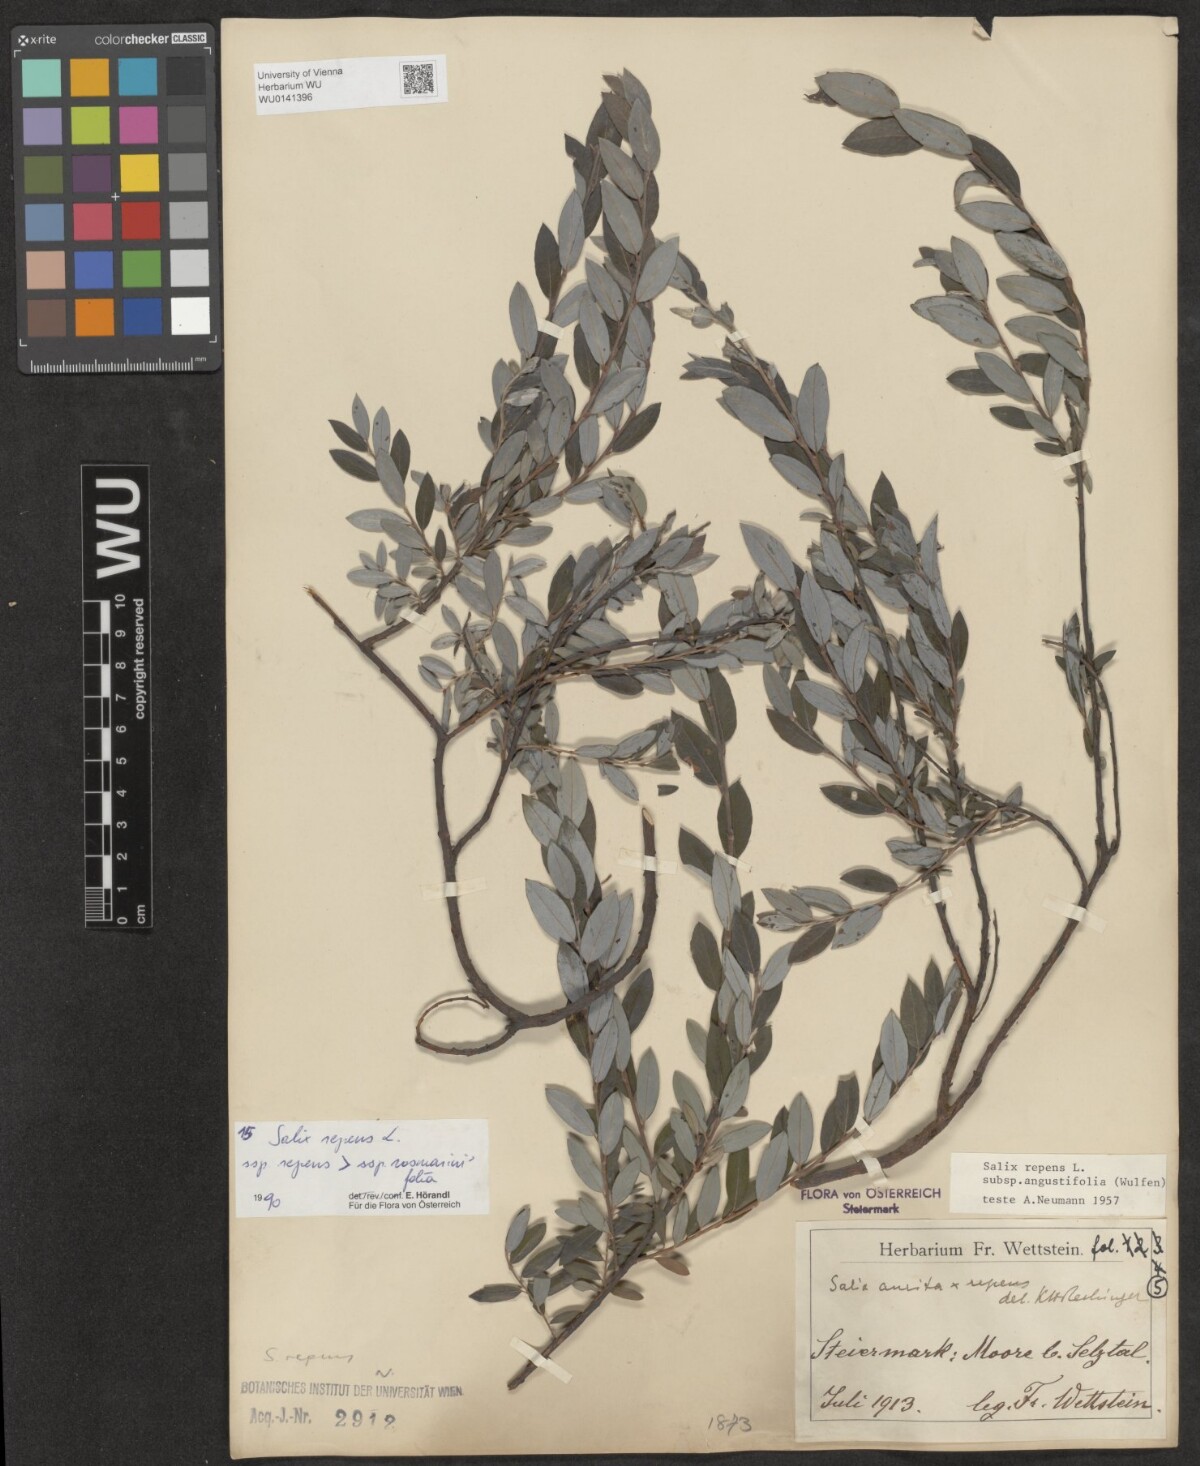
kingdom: Plantae
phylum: Tracheophyta
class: Magnoliopsida
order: Malpighiales
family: Salicaceae
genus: Salix
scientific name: Salix repens
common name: Creeping willow
